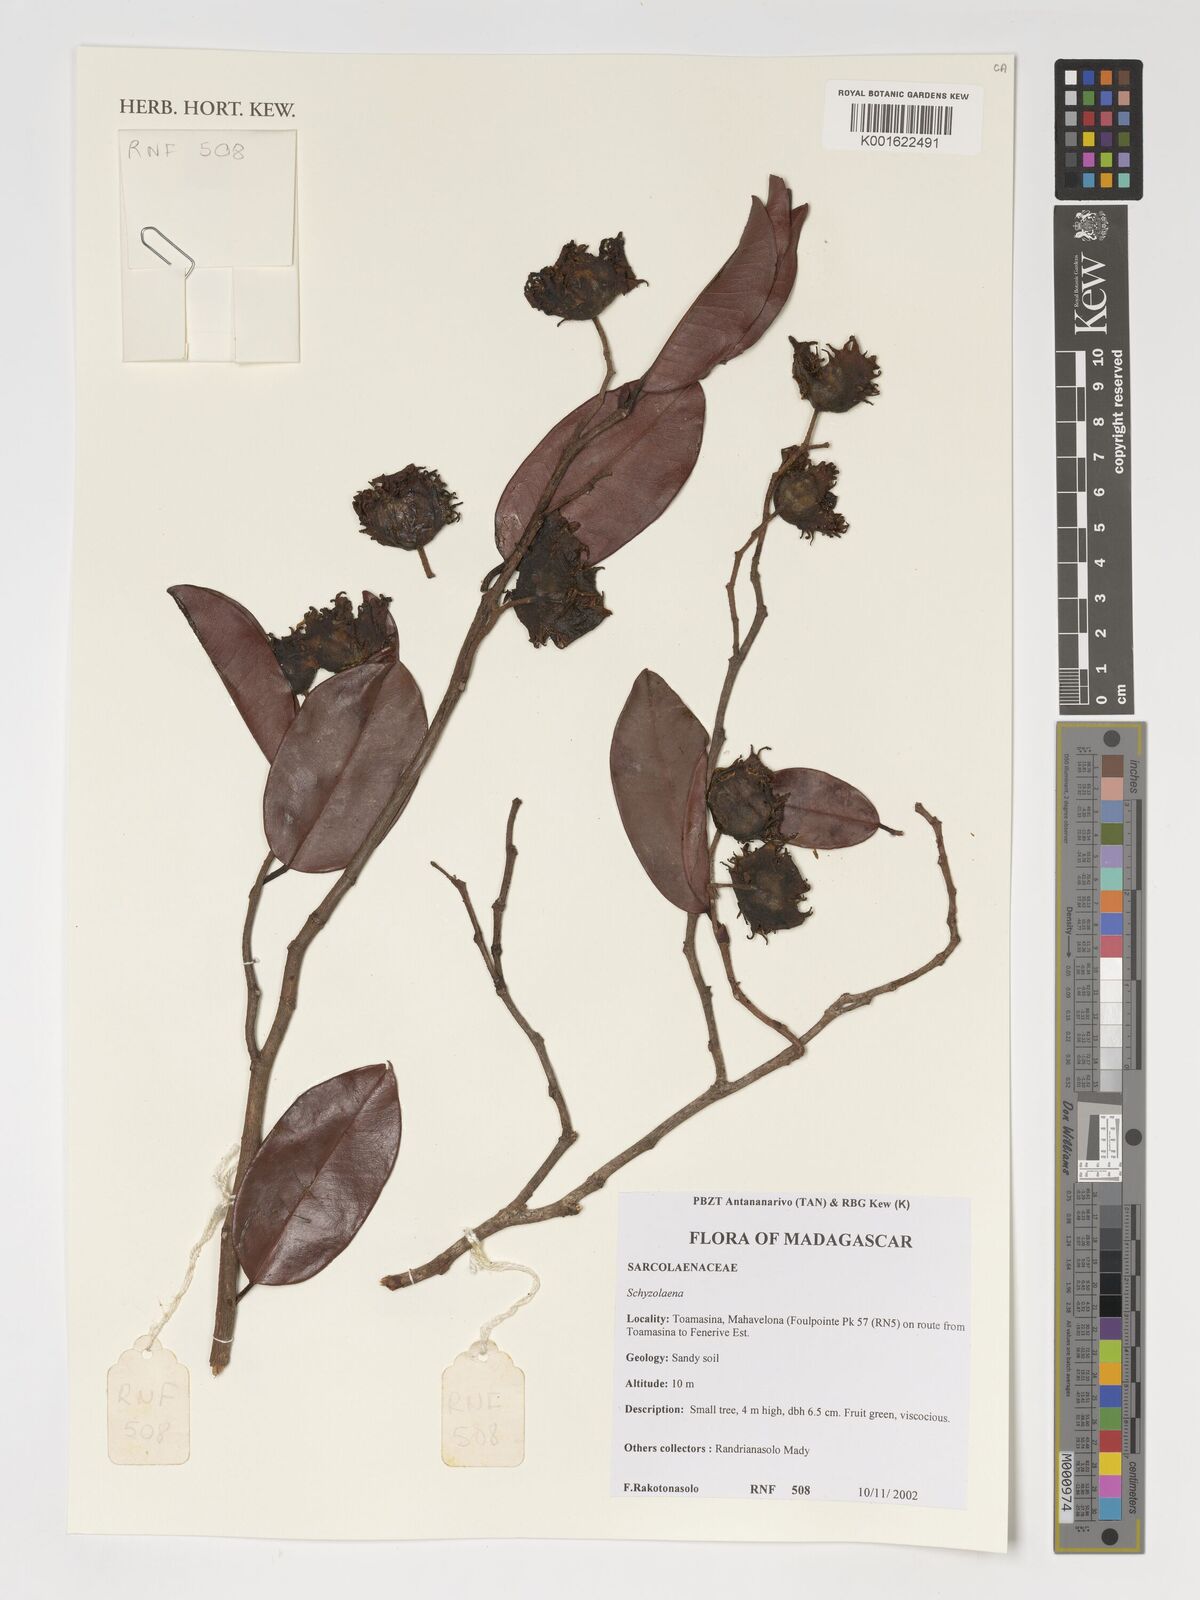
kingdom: Plantae
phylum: Tracheophyta
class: Magnoliopsida
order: Malvales
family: Sarcolaenaceae
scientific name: Sarcolaenaceae
